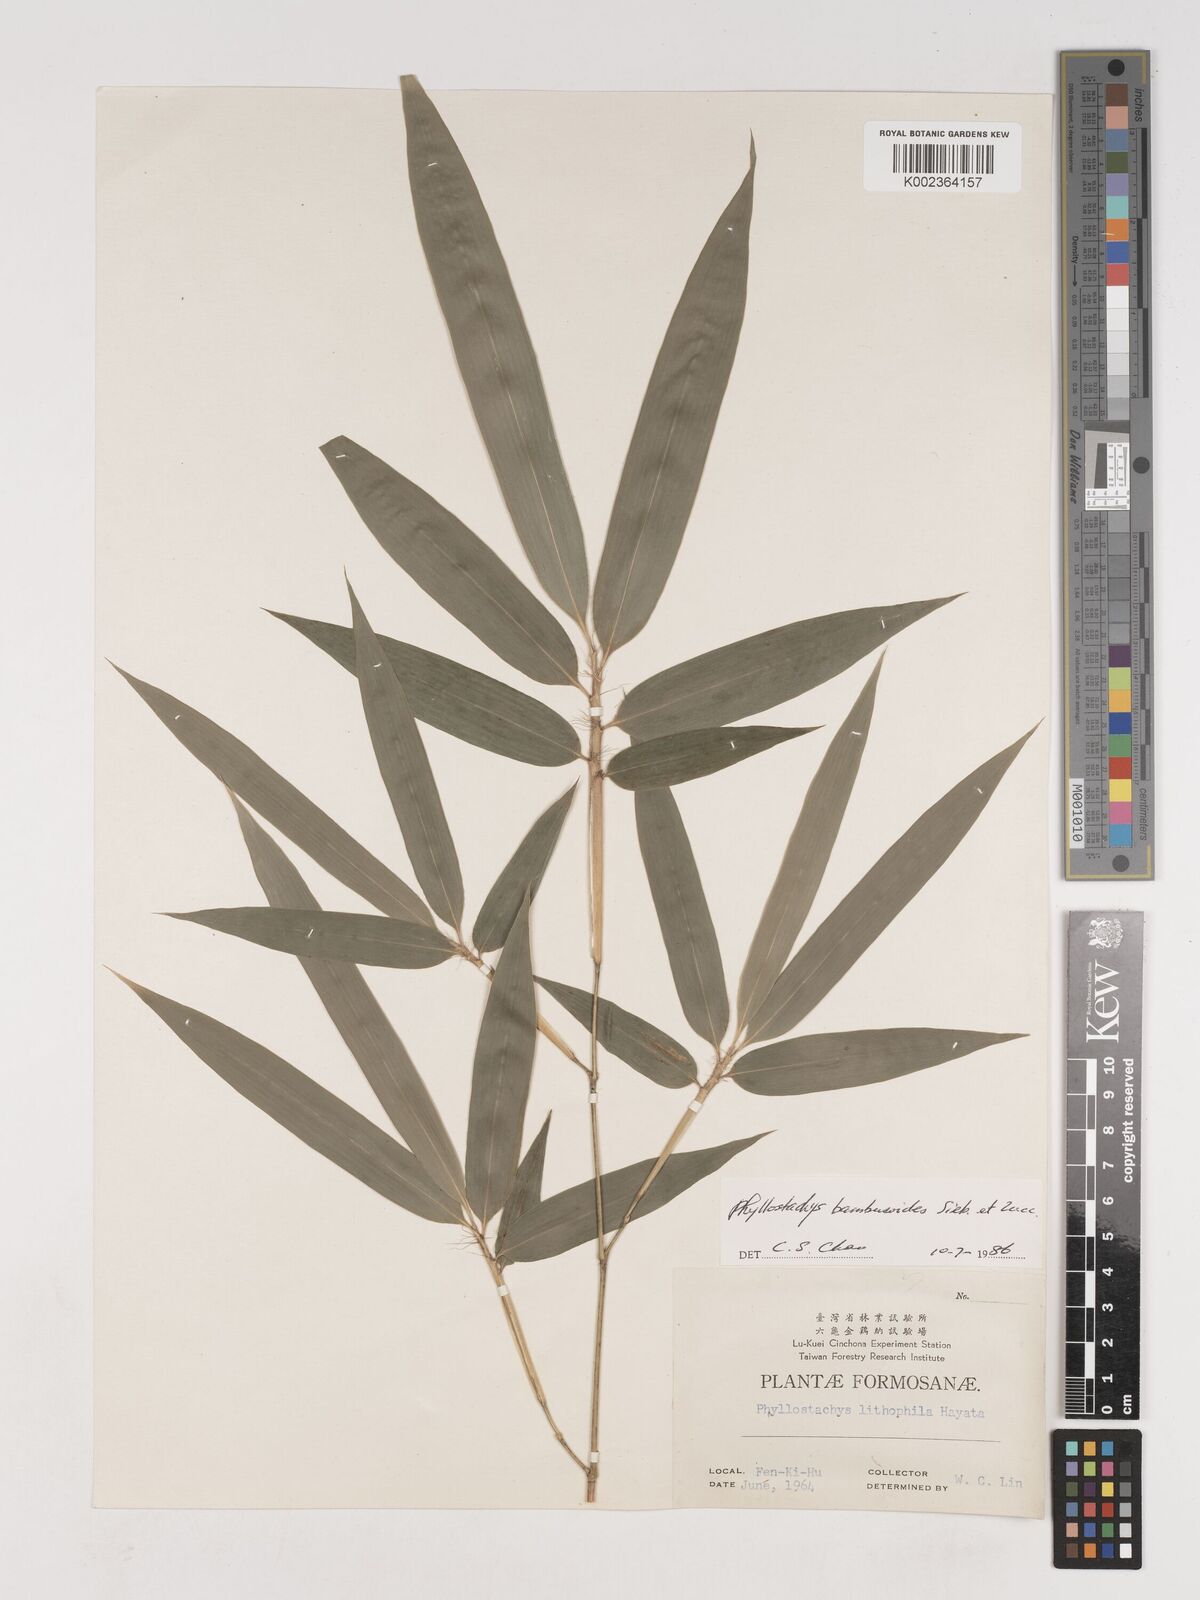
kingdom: Plantae
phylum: Tracheophyta
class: Liliopsida
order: Poales
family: Poaceae
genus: Phyllostachys
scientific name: Phyllostachys reticulata
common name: Bamboo
